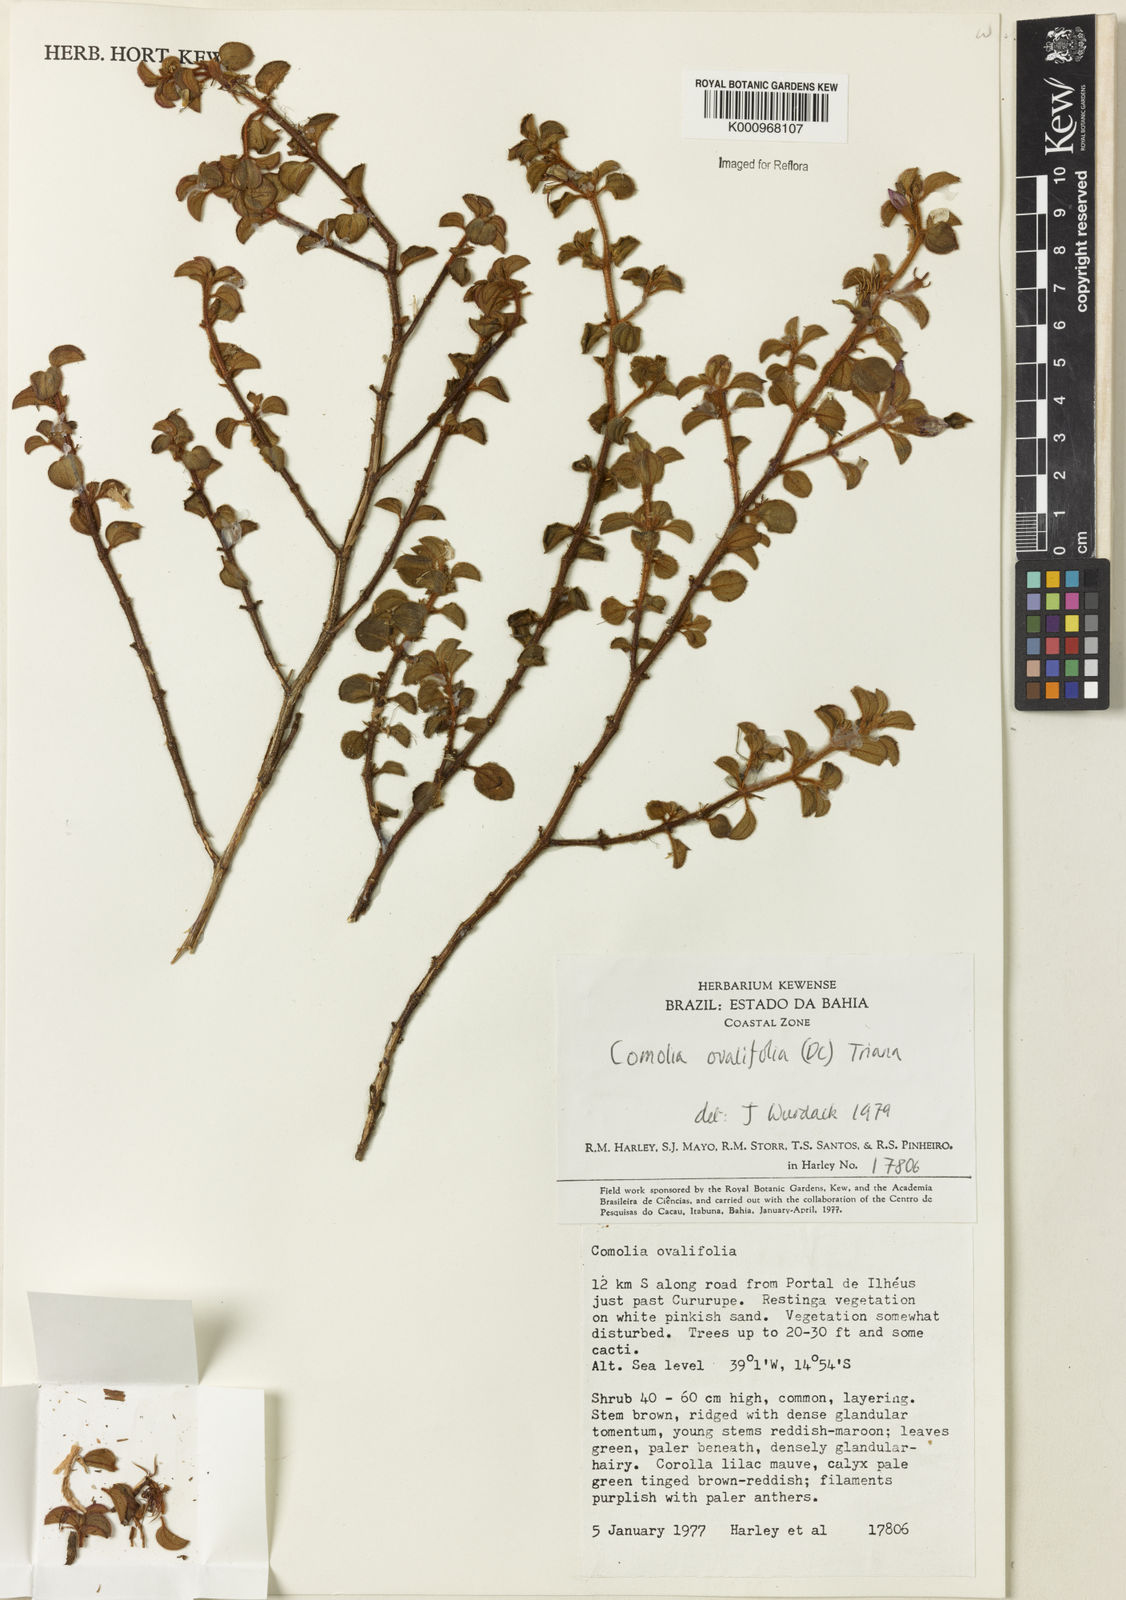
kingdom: Plantae
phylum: Tracheophyta
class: Magnoliopsida
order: Myrtales
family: Melastomataceae
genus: Comolia
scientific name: Comolia ovalifolia
